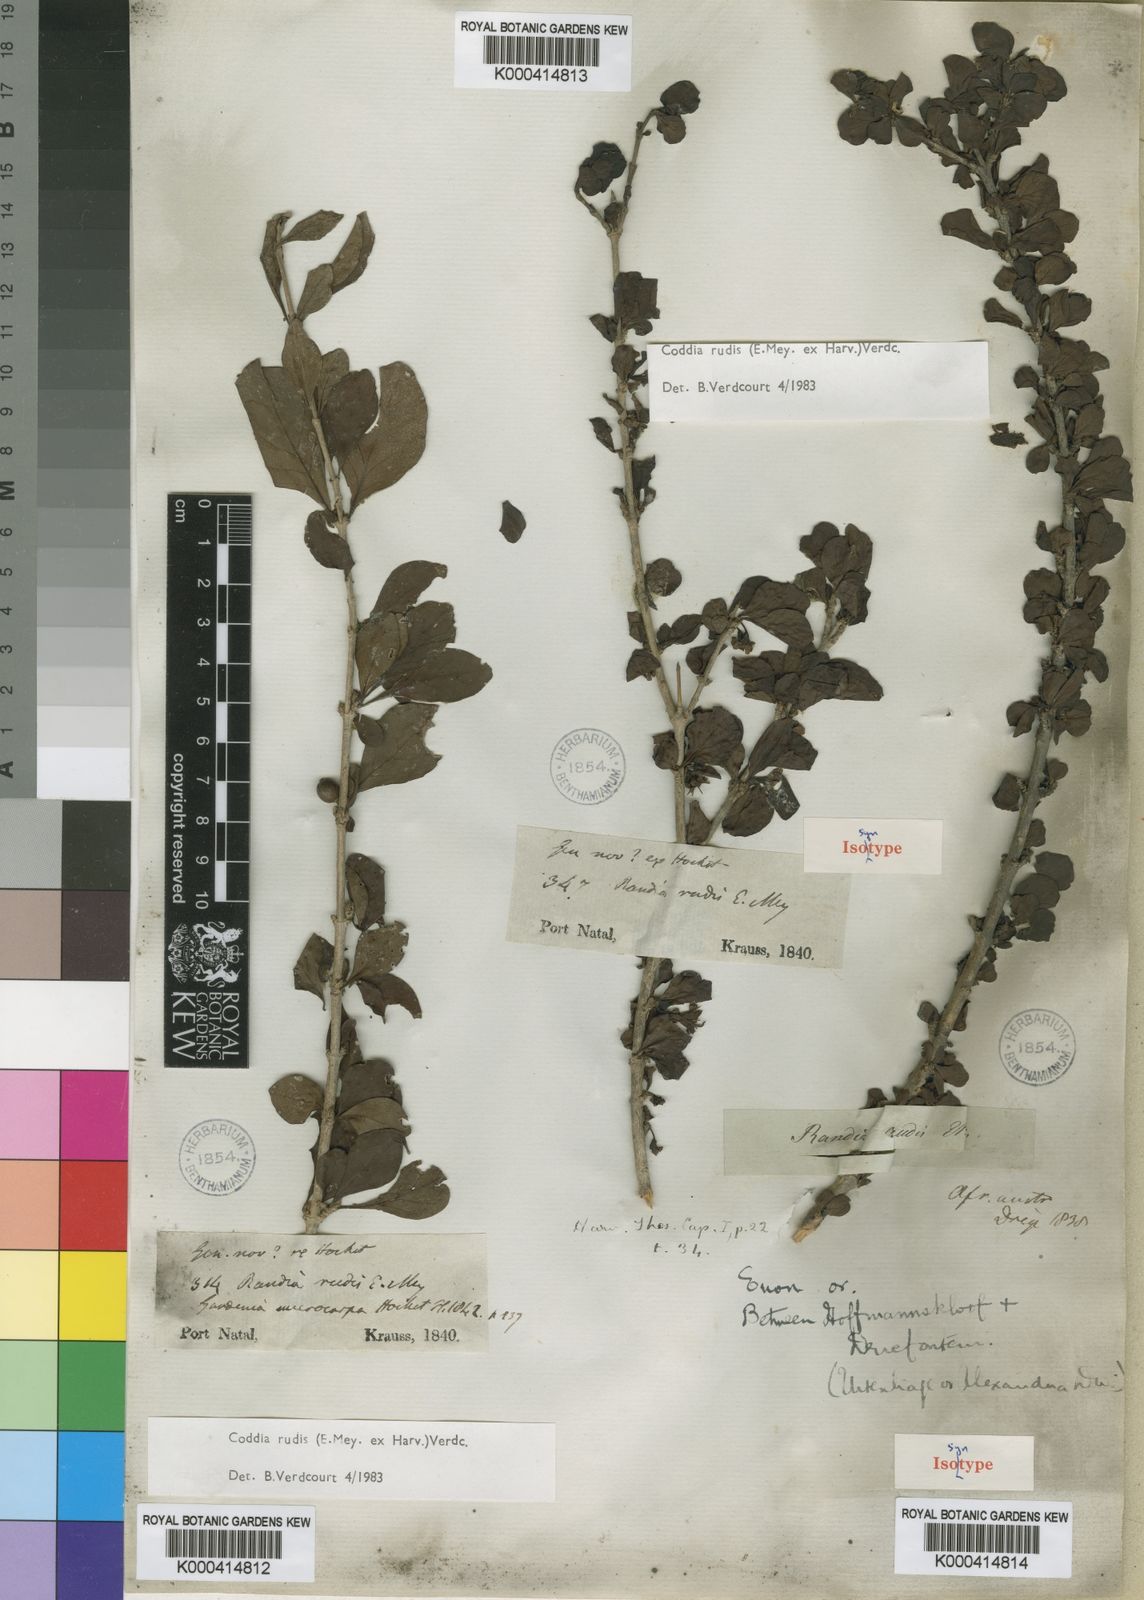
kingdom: Plantae
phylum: Tracheophyta
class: Magnoliopsida
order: Gentianales
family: Rubiaceae
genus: Coddia
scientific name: Coddia rudis
